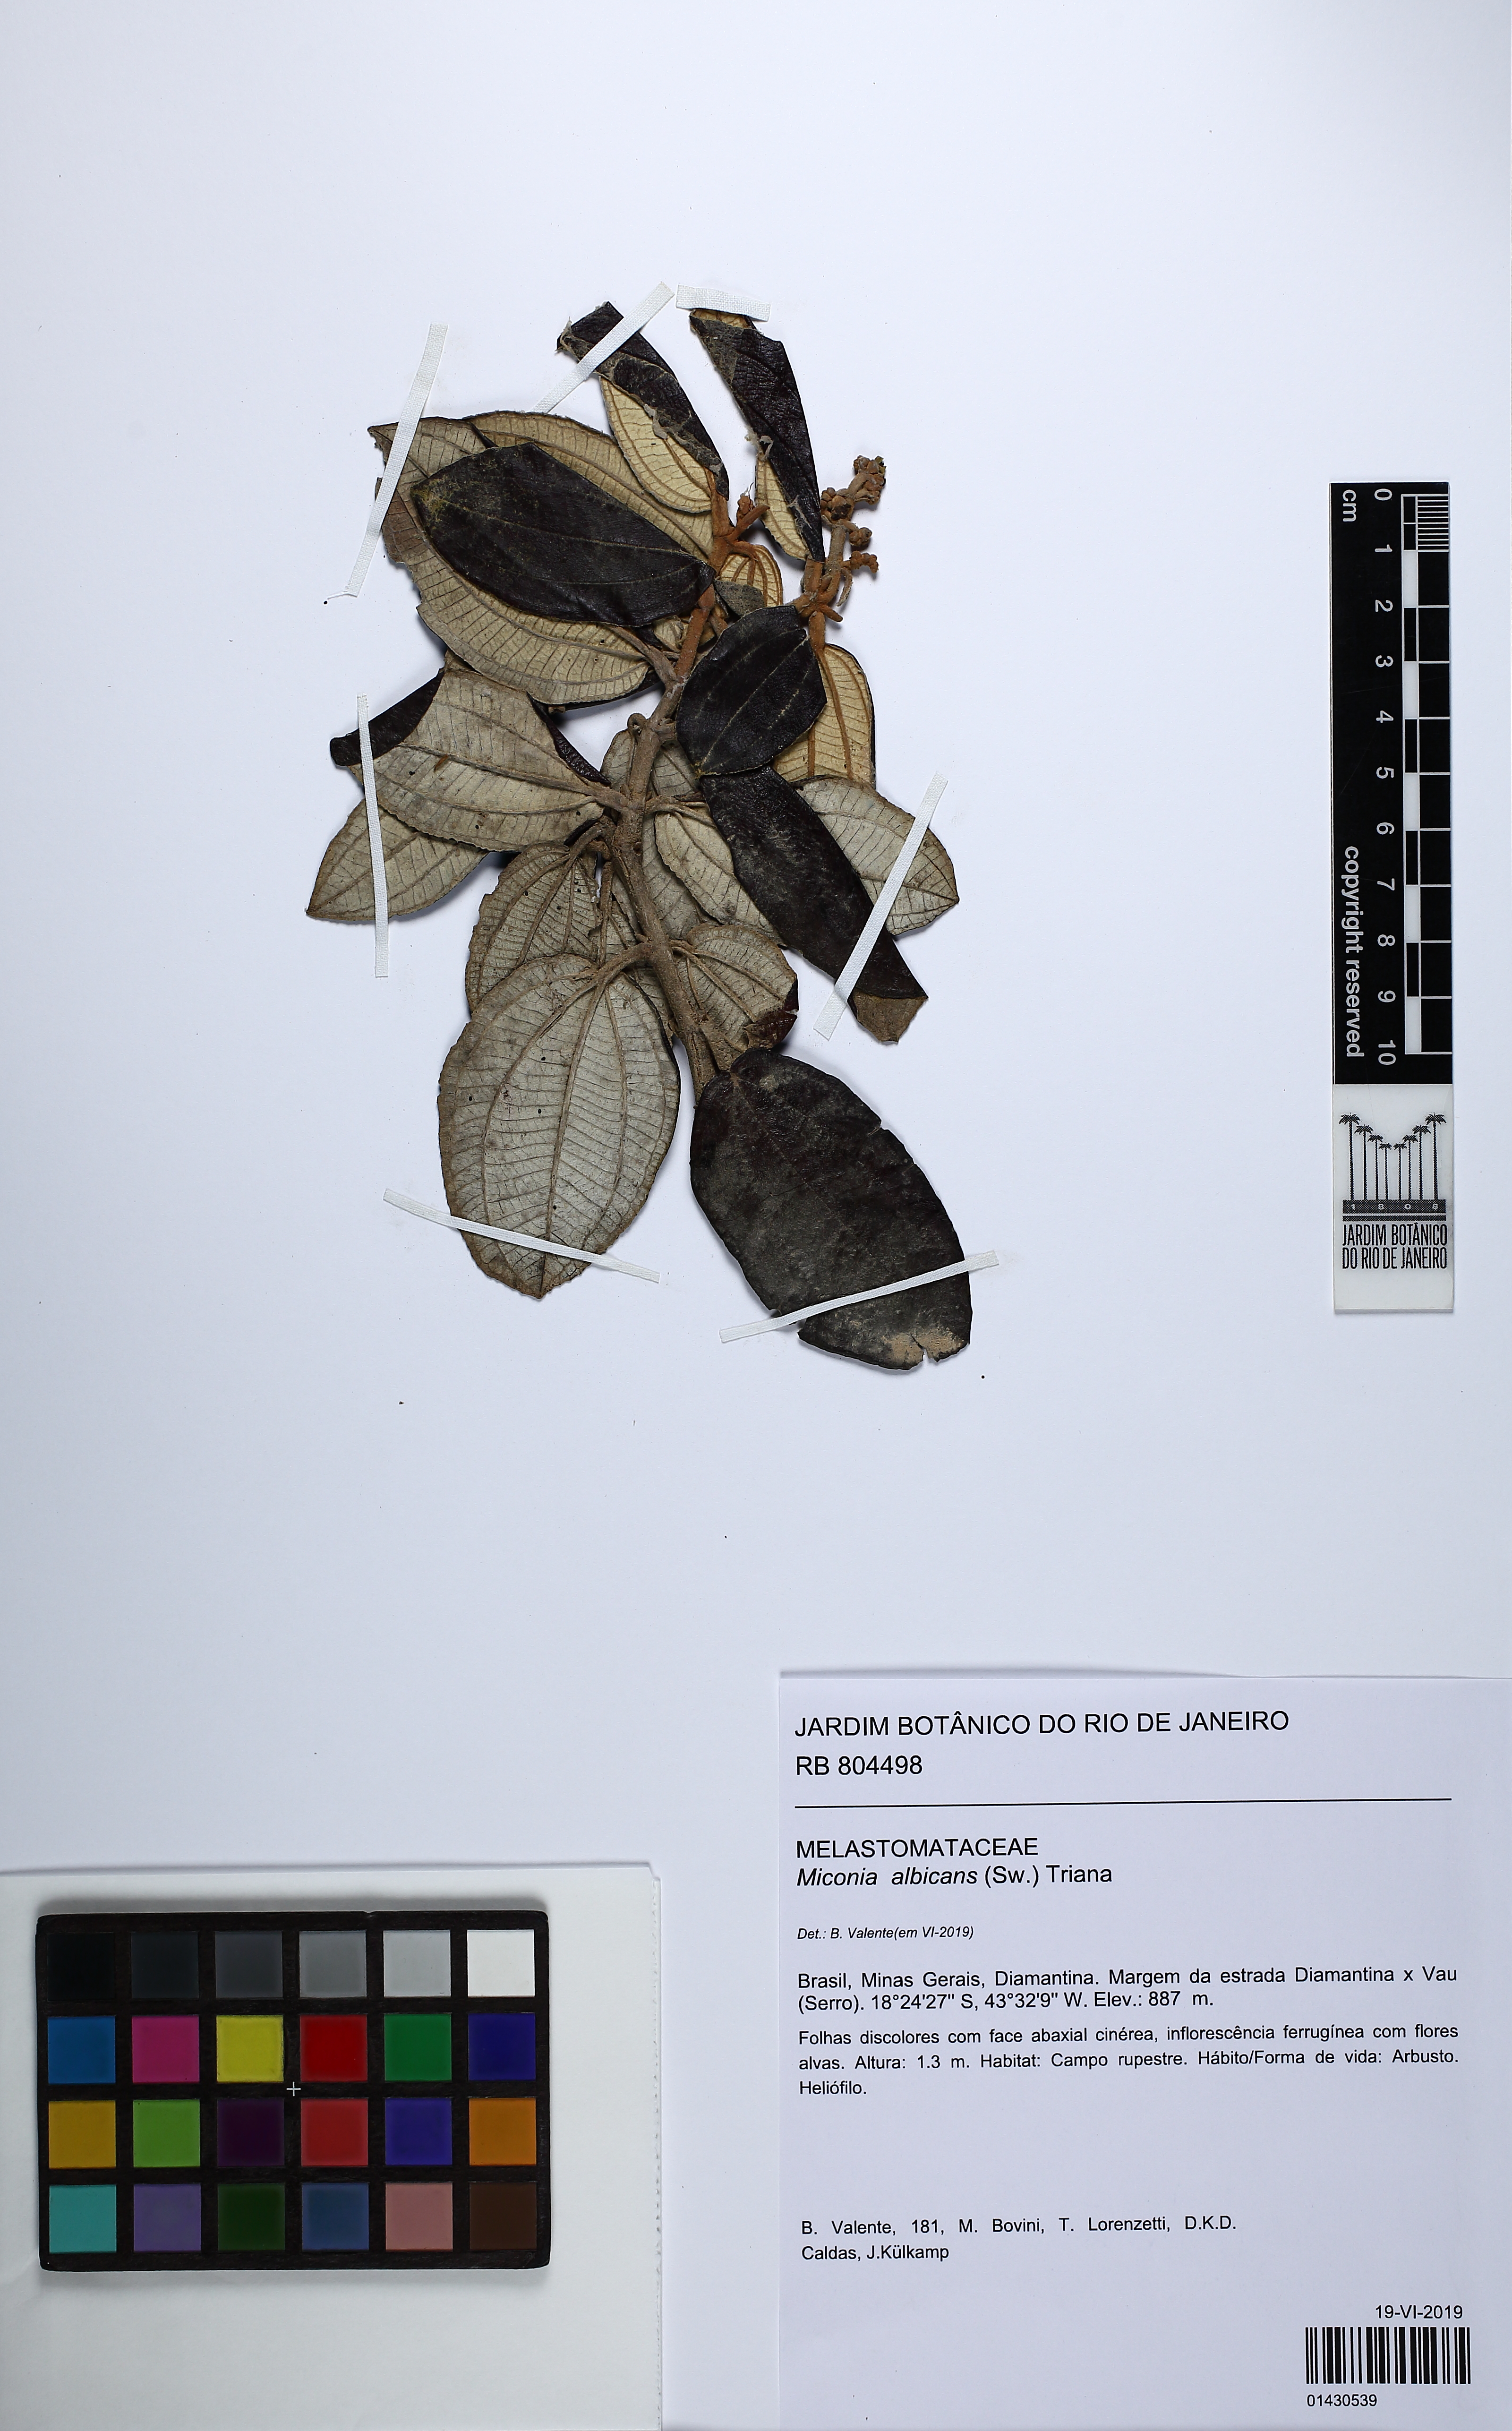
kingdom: Plantae
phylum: Tracheophyta
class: Magnoliopsida
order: Myrtales
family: Melastomataceae
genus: Miconia
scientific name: Miconia albicans
